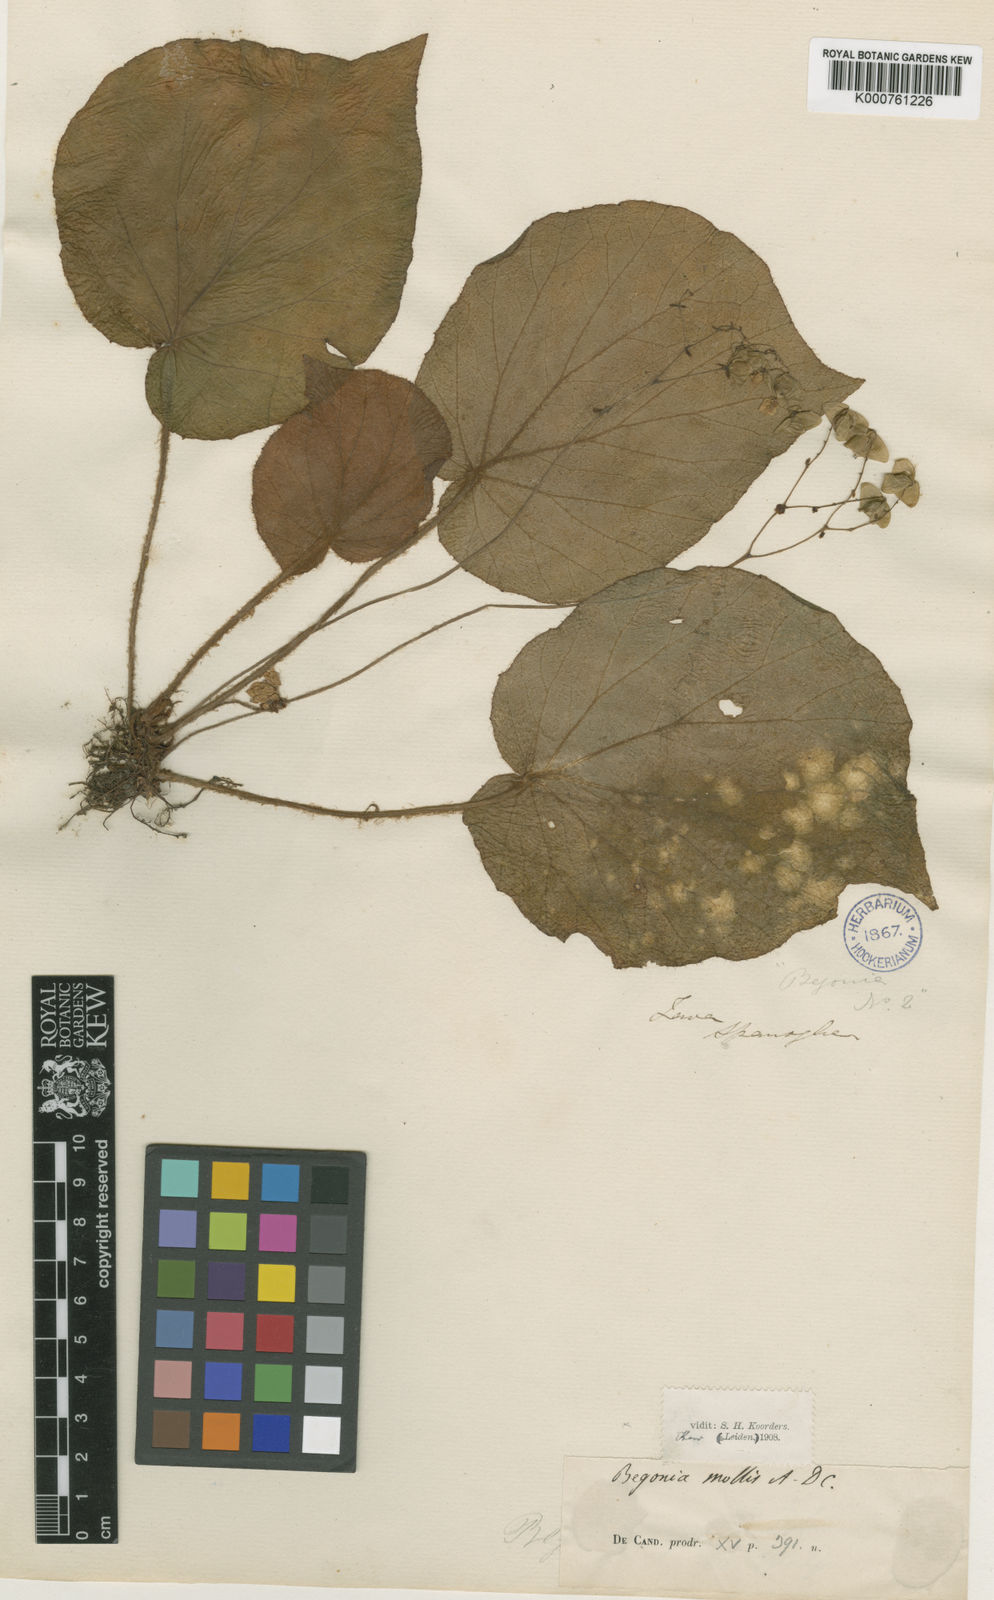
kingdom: Plantae
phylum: Tracheophyta
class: Magnoliopsida
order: Cucurbitales
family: Begoniaceae
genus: Begonia
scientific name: Begonia mollis
